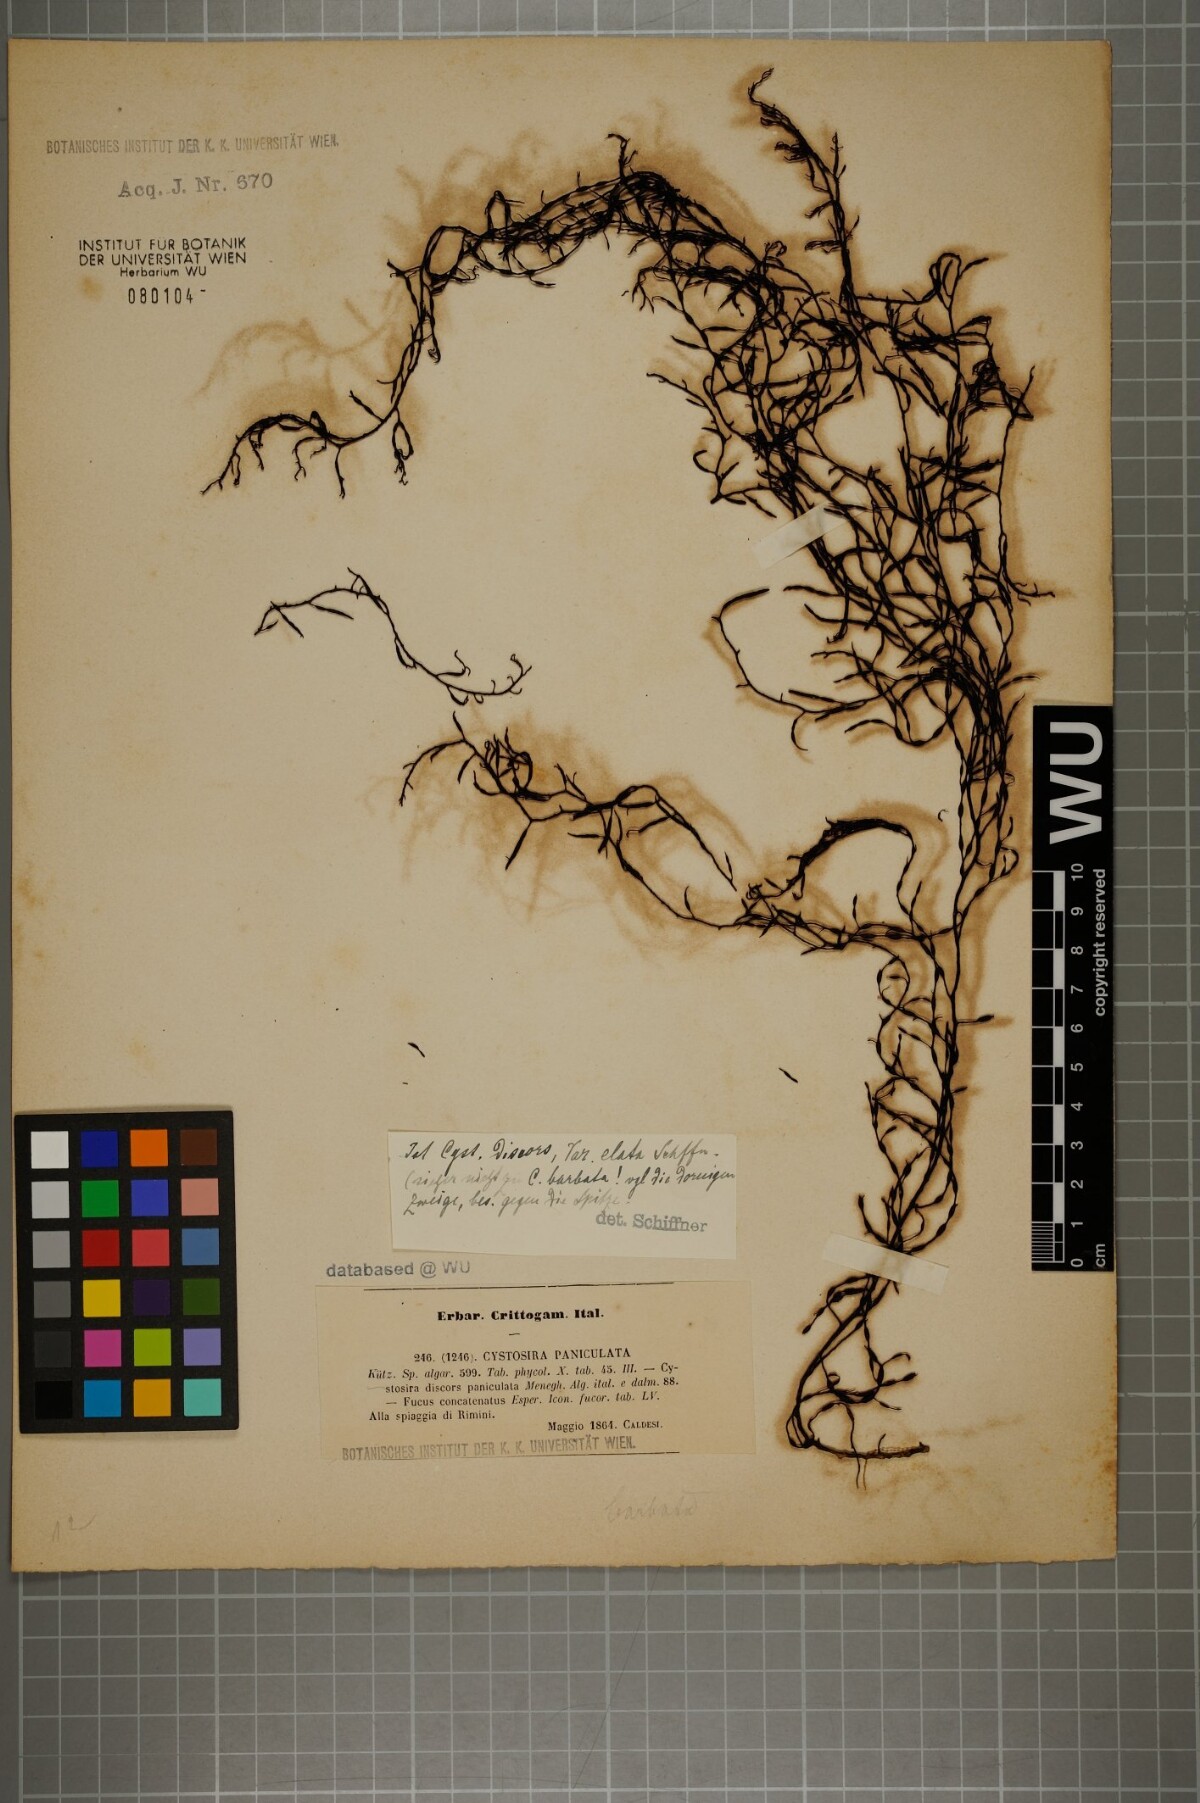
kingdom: Chromista
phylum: Ochrophyta
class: Phaeophyceae
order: Fucales
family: Sargassaceae
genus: Cystoseira
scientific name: Cystoseira foeniculacea
